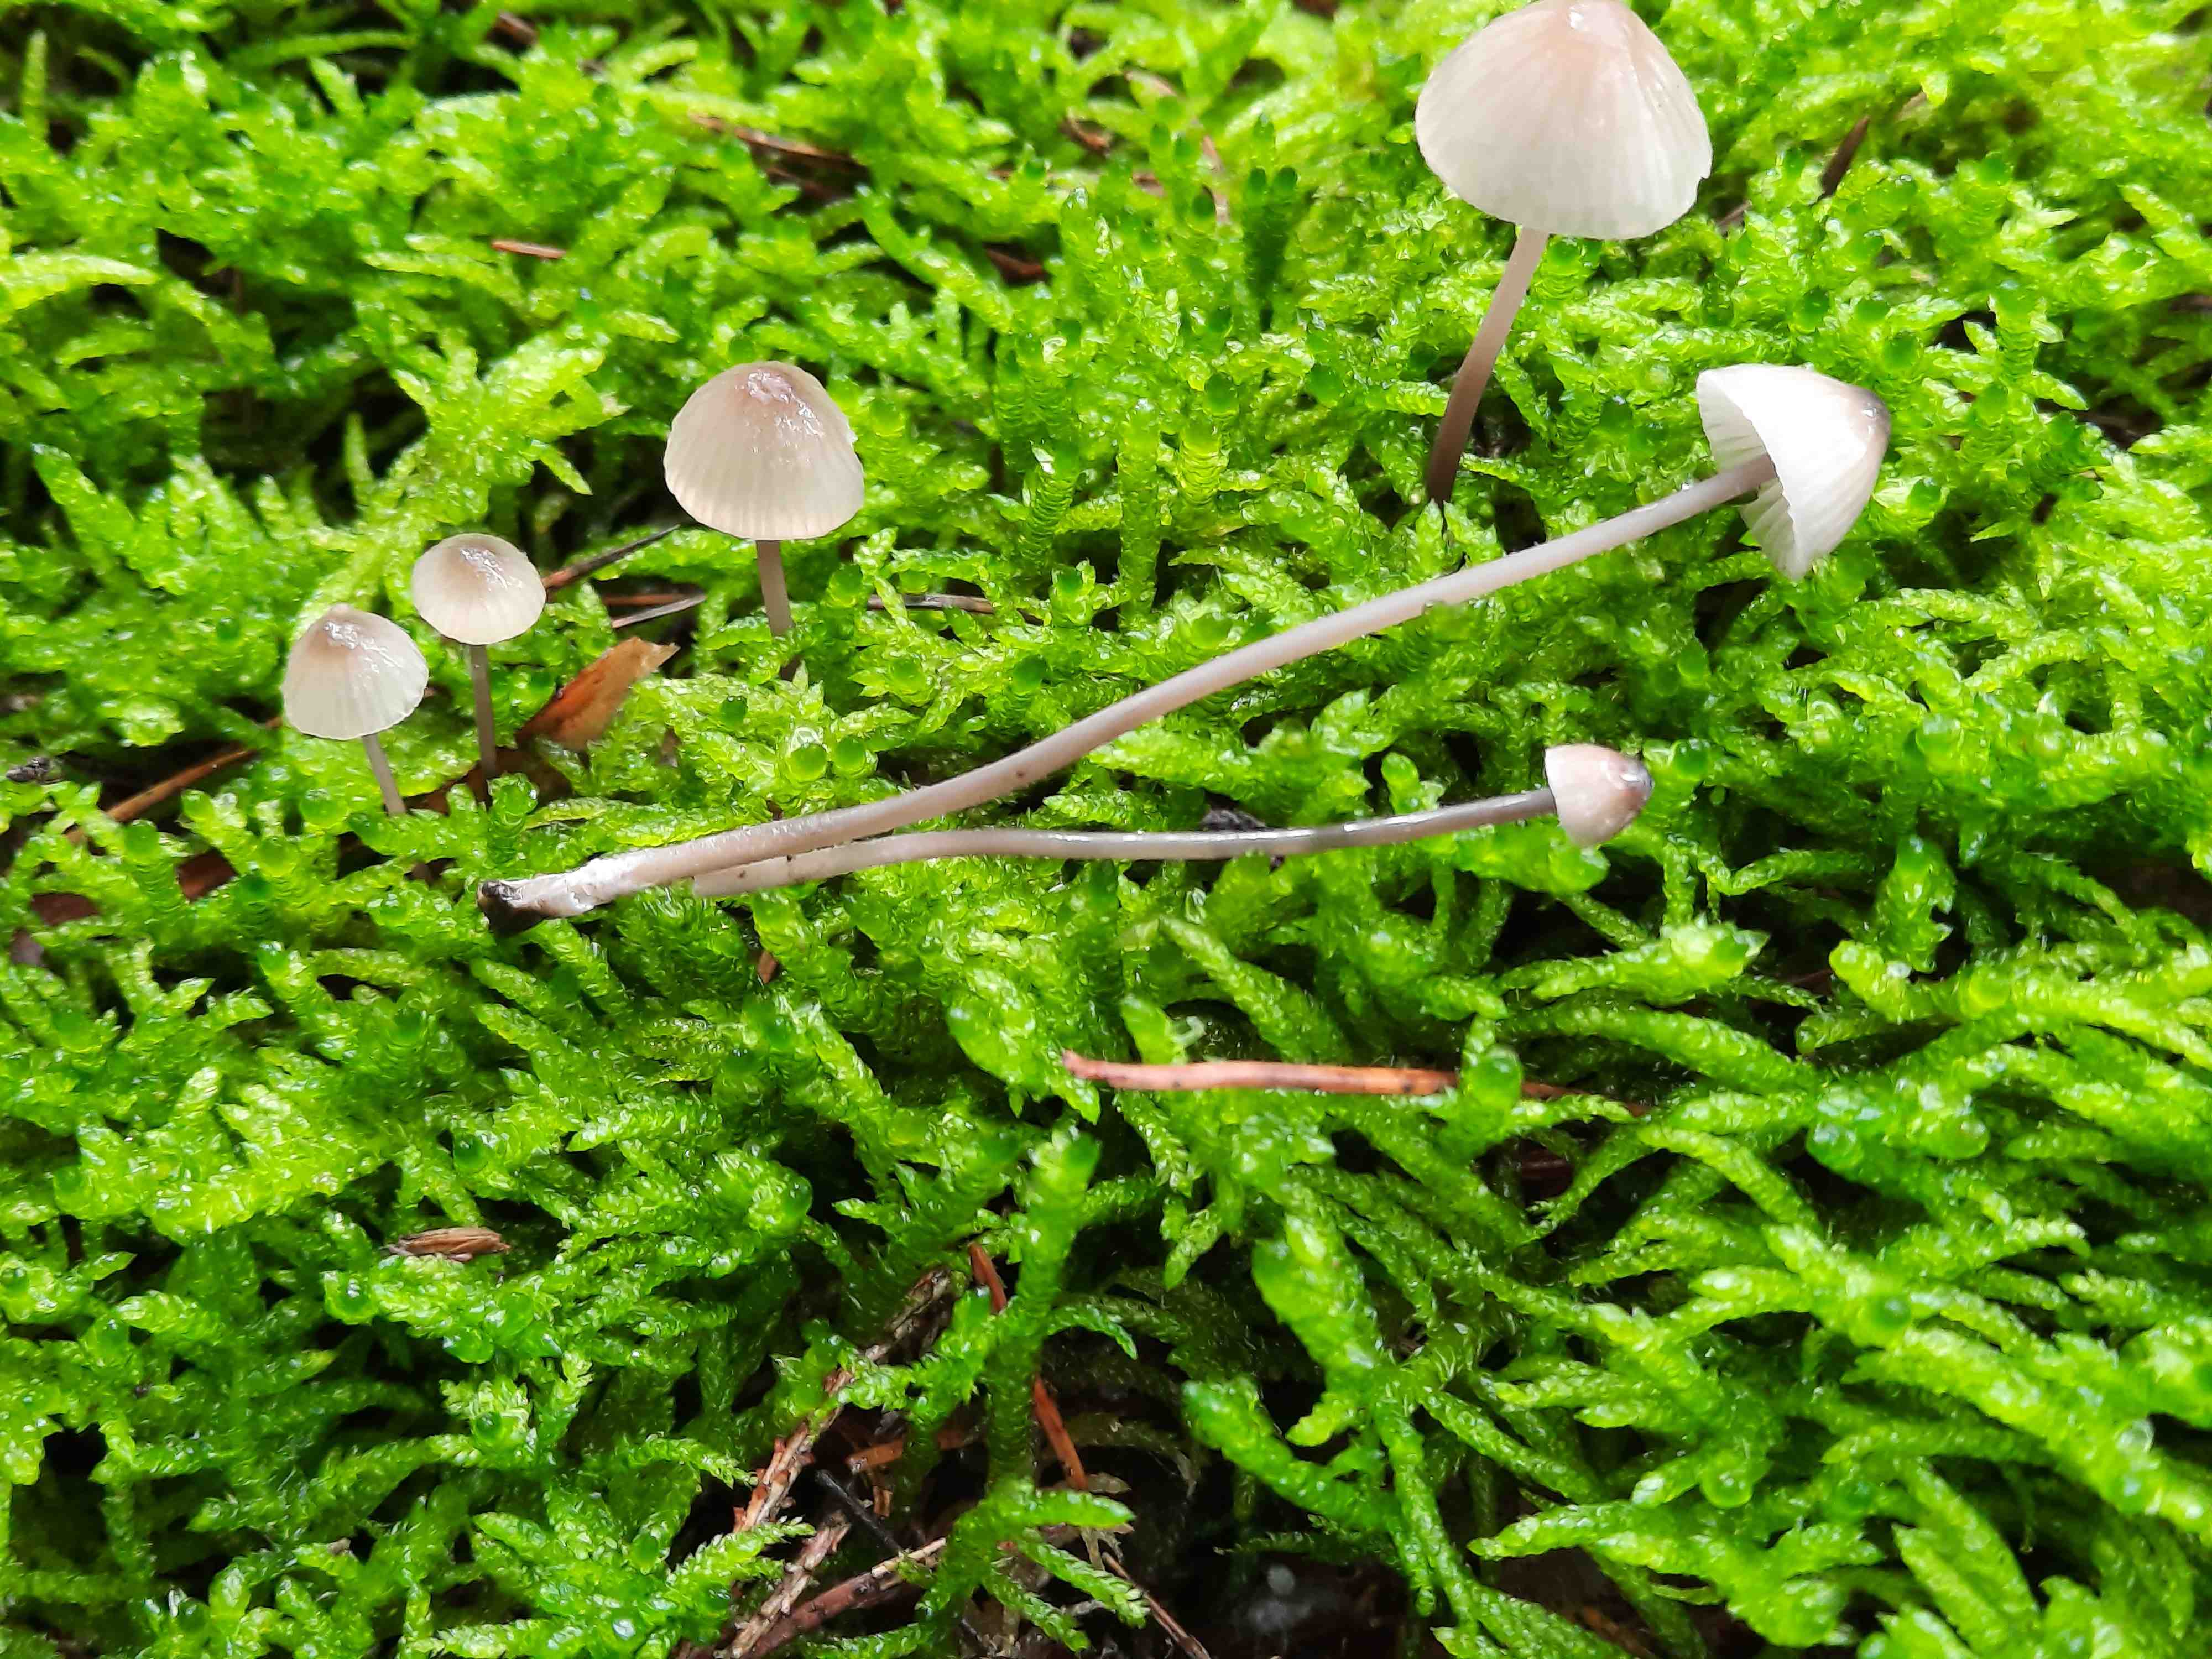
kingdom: Fungi
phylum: Basidiomycota
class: Agaricomycetes
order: Agaricales
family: Mycenaceae
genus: Mycena
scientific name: Mycena galopus
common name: hvidmælket huesvamp
